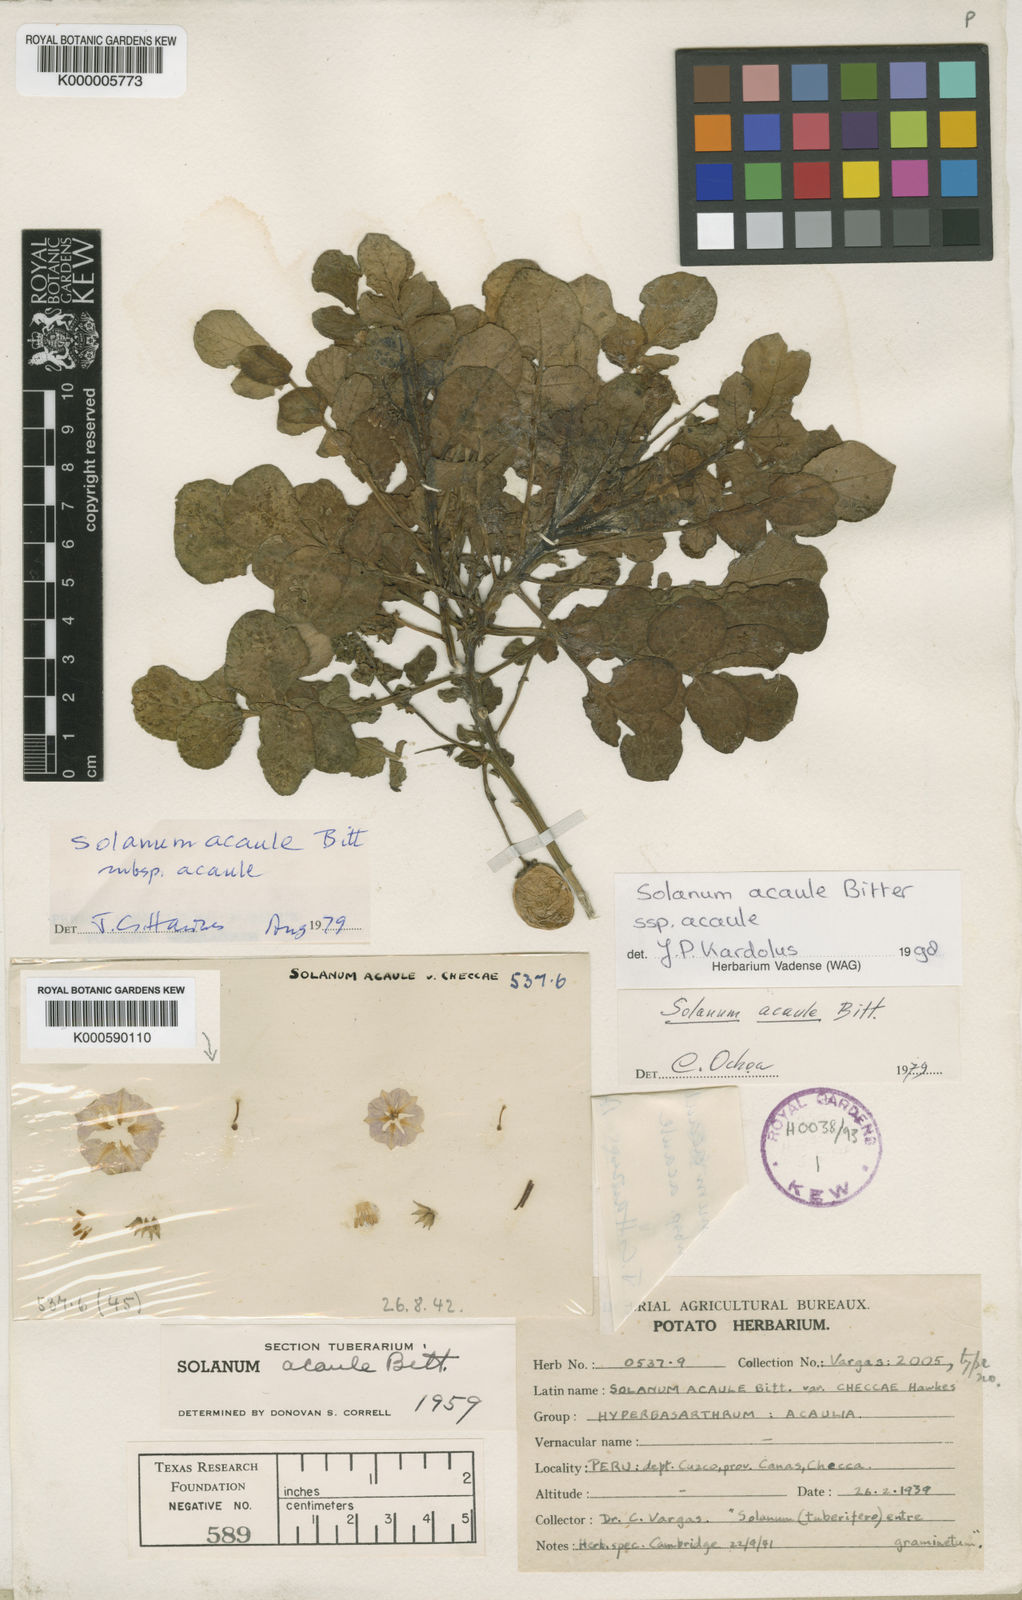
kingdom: Plantae
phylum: Tracheophyta
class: Magnoliopsida
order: Solanales
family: Solanaceae
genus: Solanum
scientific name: Solanum acaule
